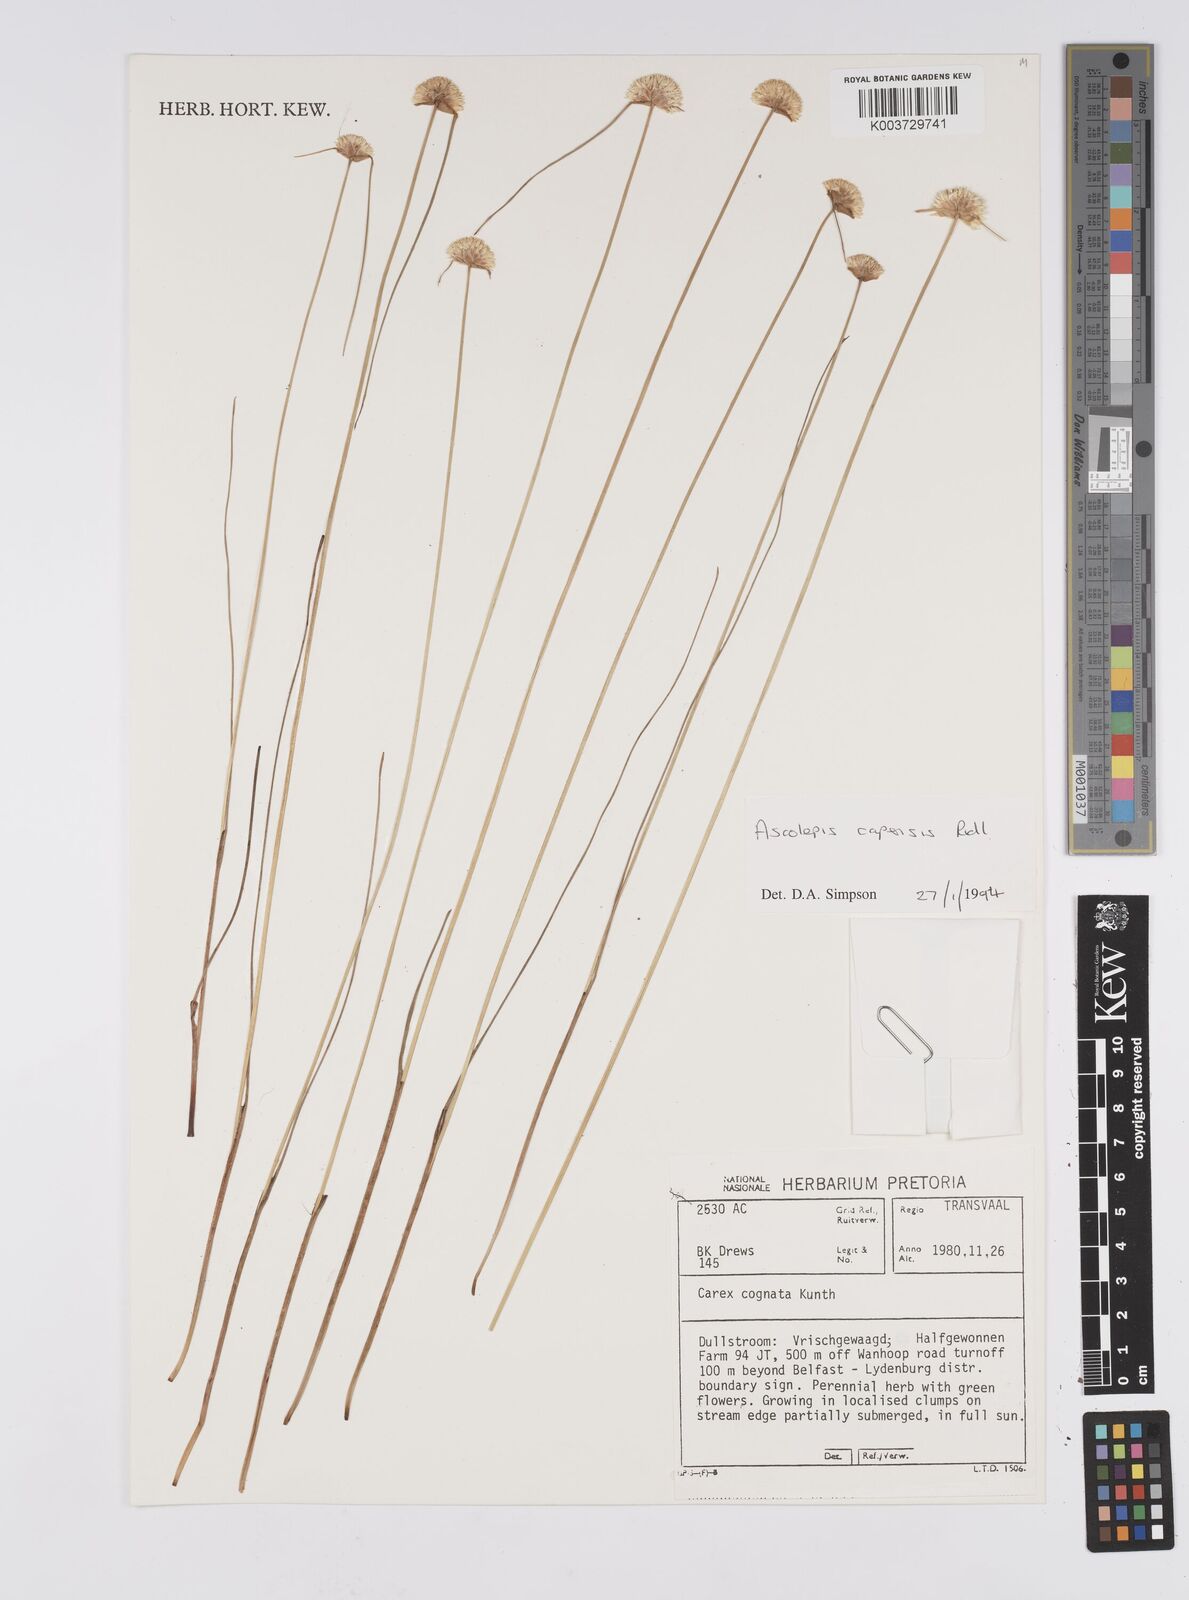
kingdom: Plantae
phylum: Tracheophyta
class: Liliopsida
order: Poales
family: Cyperaceae
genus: Cyperus
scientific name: Cyperus capensis
